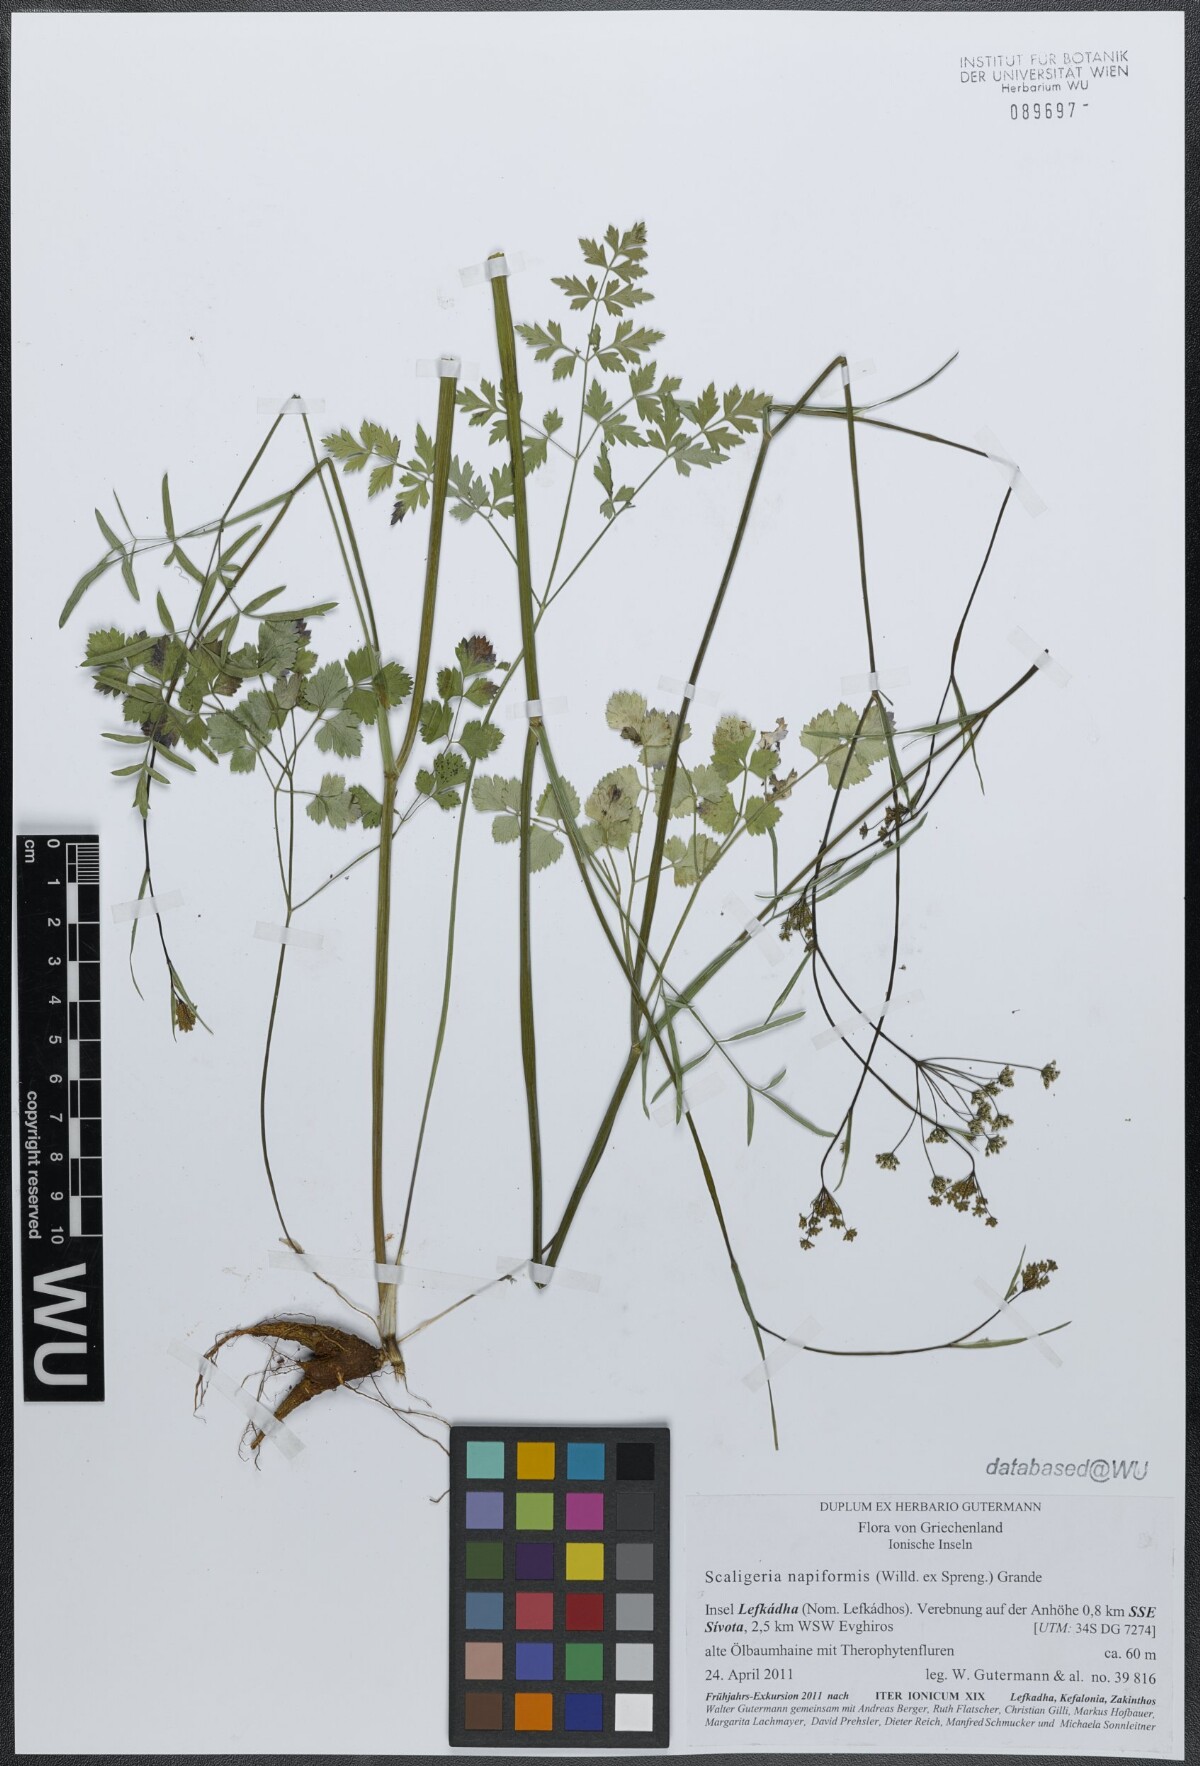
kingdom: Plantae
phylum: Tracheophyta
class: Magnoliopsida
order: Apiales
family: Apiaceae
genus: Scaligeria
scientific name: Scaligeria napiformis
